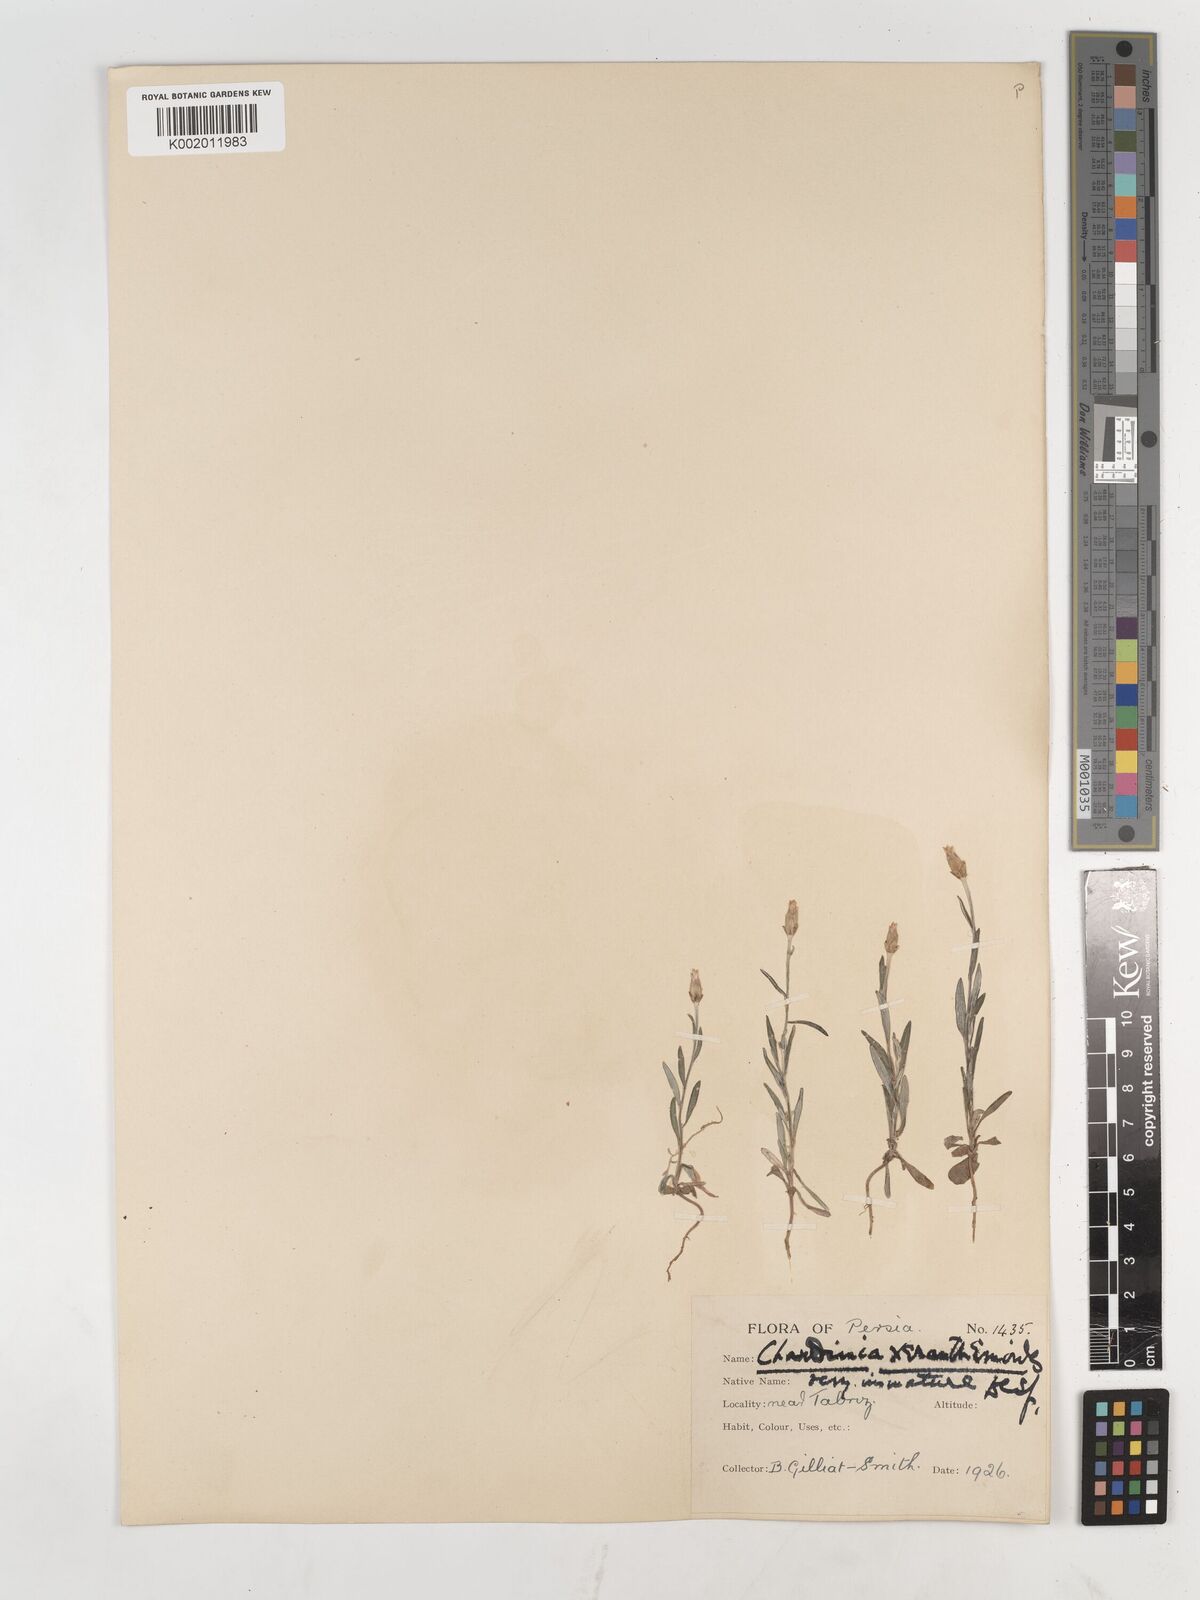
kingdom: Plantae
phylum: Tracheophyta
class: Magnoliopsida
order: Asterales
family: Asteraceae
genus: Chardinia
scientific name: Chardinia orientalis
